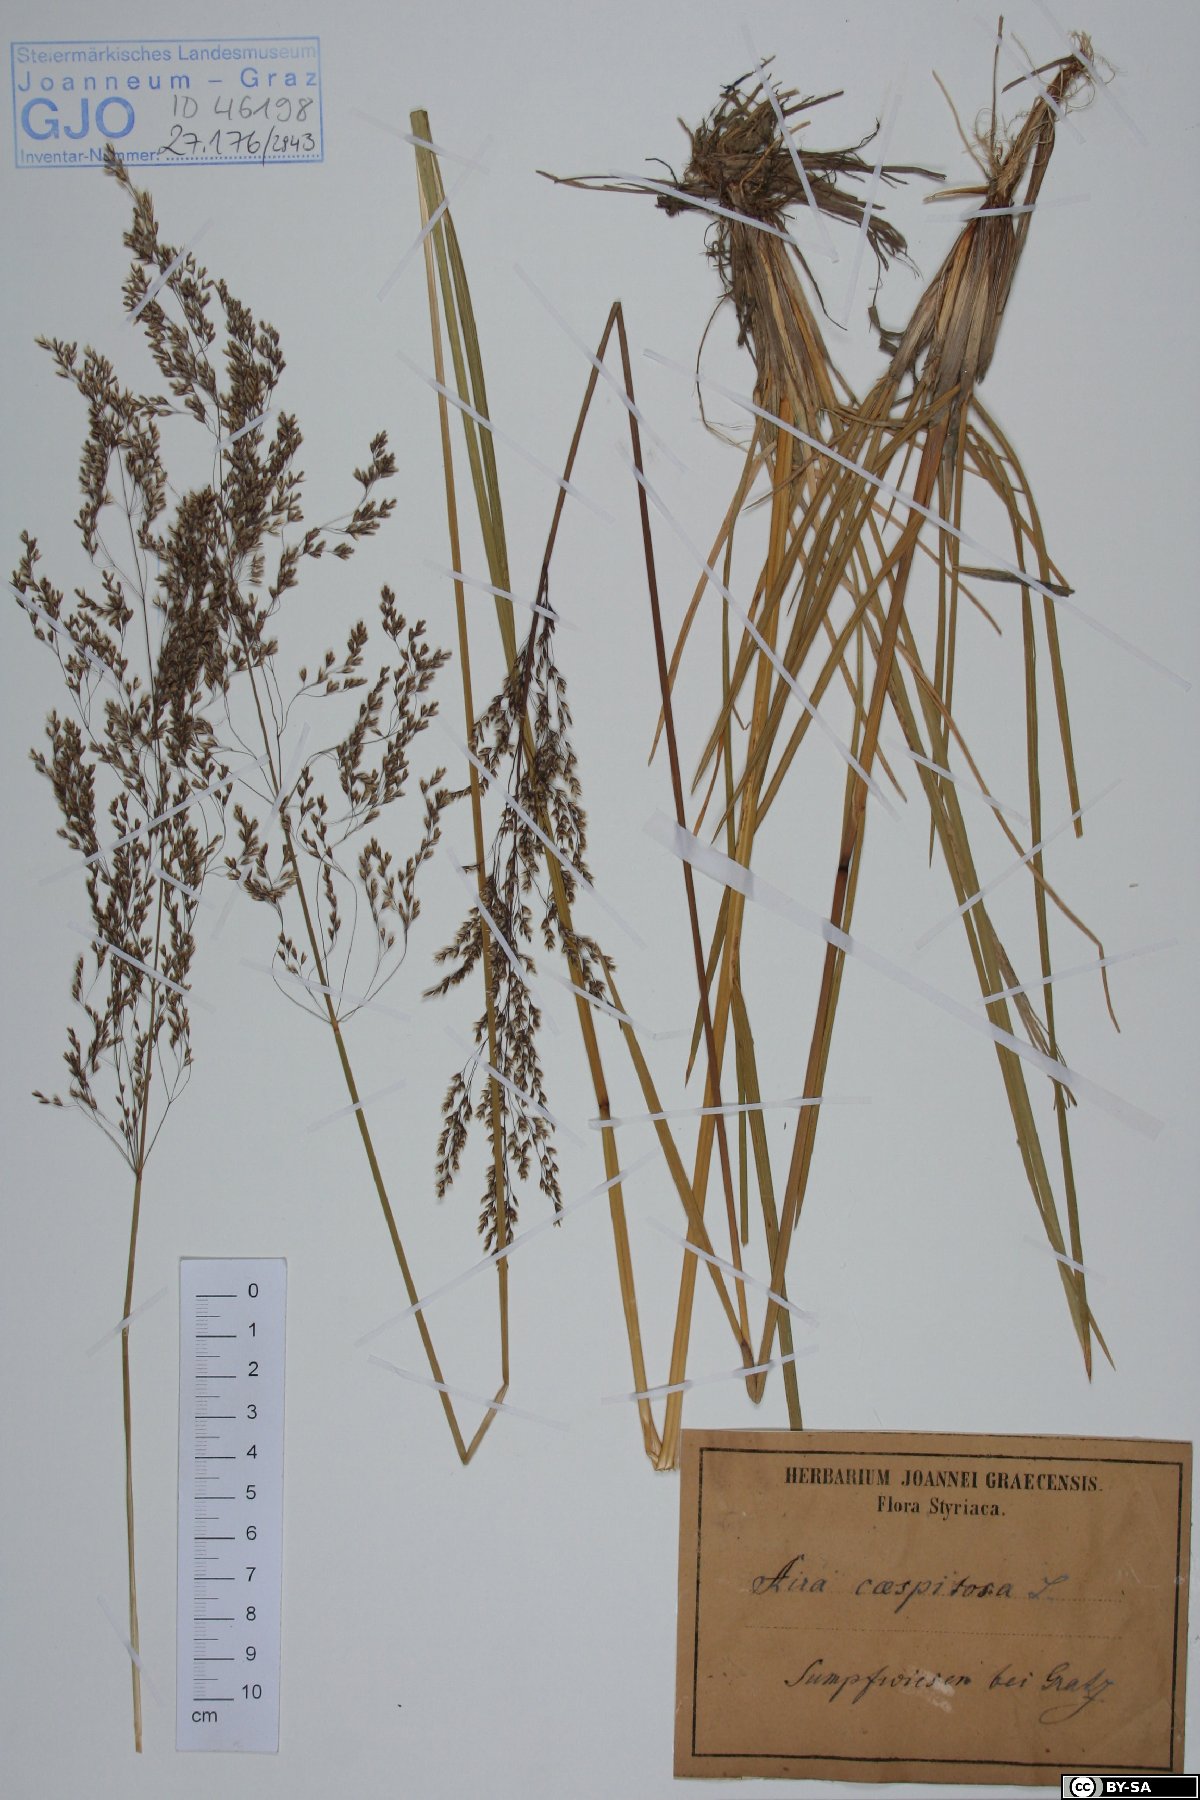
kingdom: Plantae
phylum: Tracheophyta
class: Liliopsida
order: Poales
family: Poaceae
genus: Deschampsia
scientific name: Deschampsia cespitosa
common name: Tufted hair-grass
